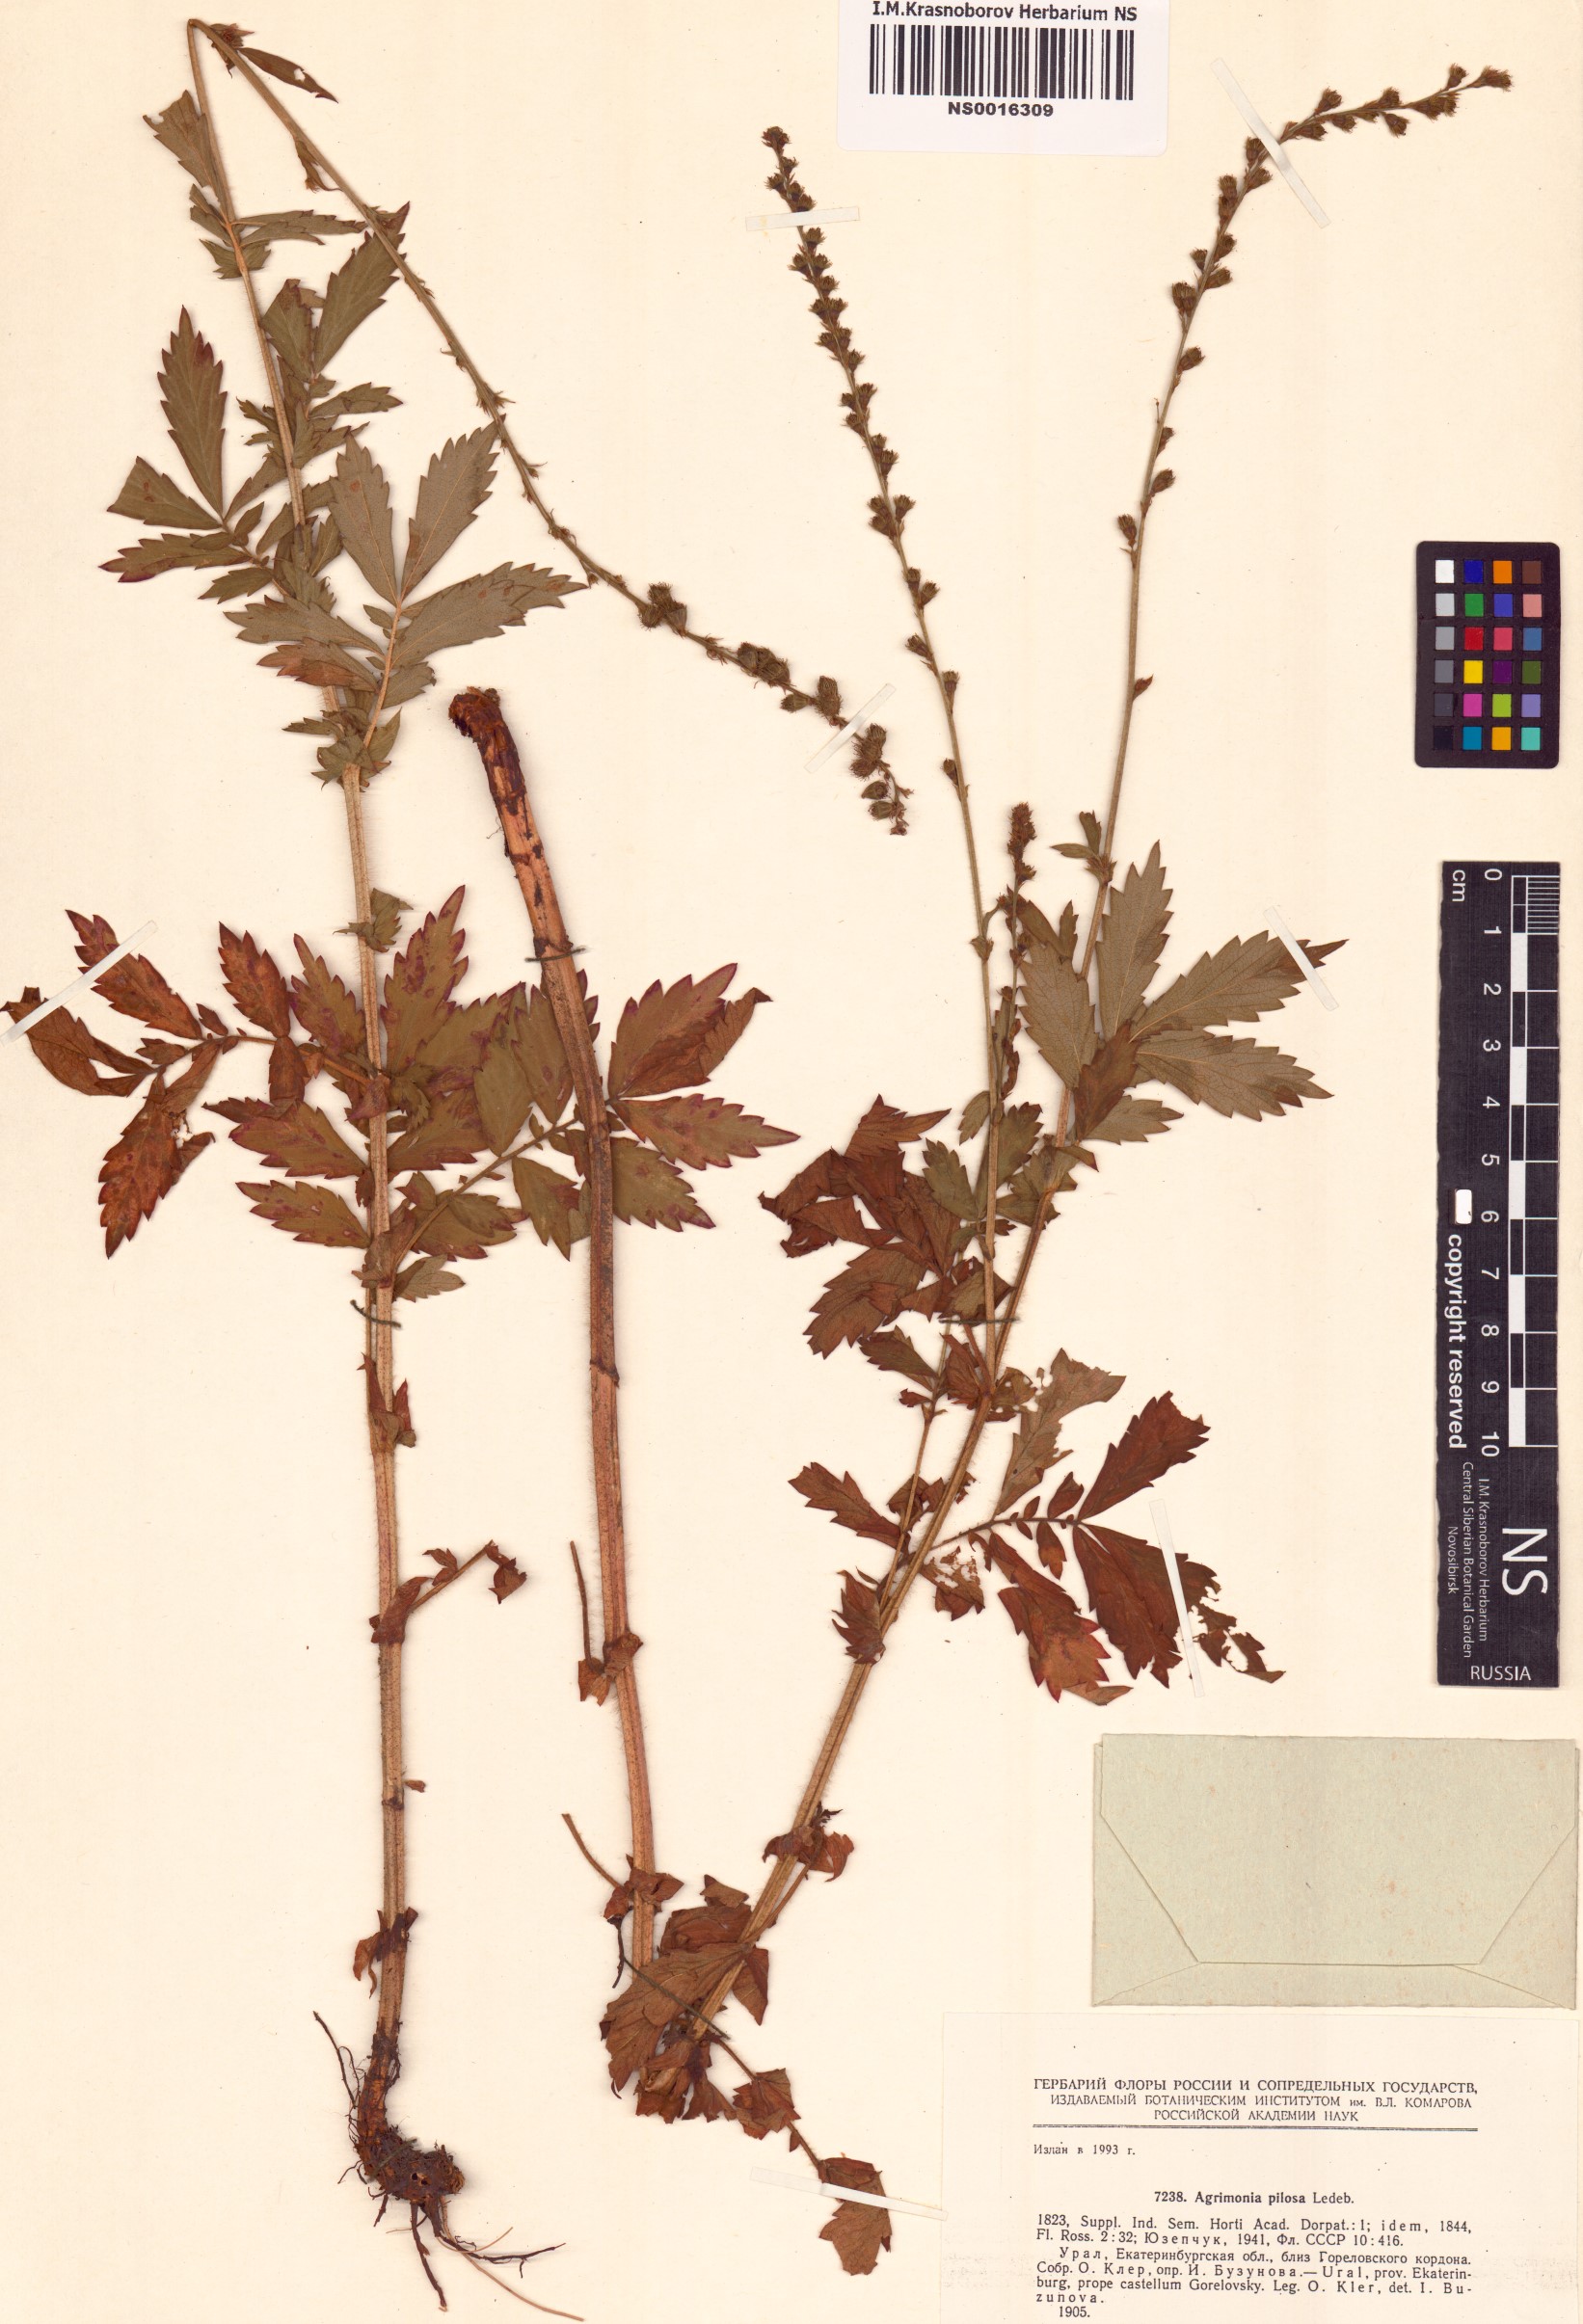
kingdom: Plantae
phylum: Tracheophyta
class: Magnoliopsida
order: Rosales
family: Rosaceae
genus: Agrimonia
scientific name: Agrimonia pilosa
